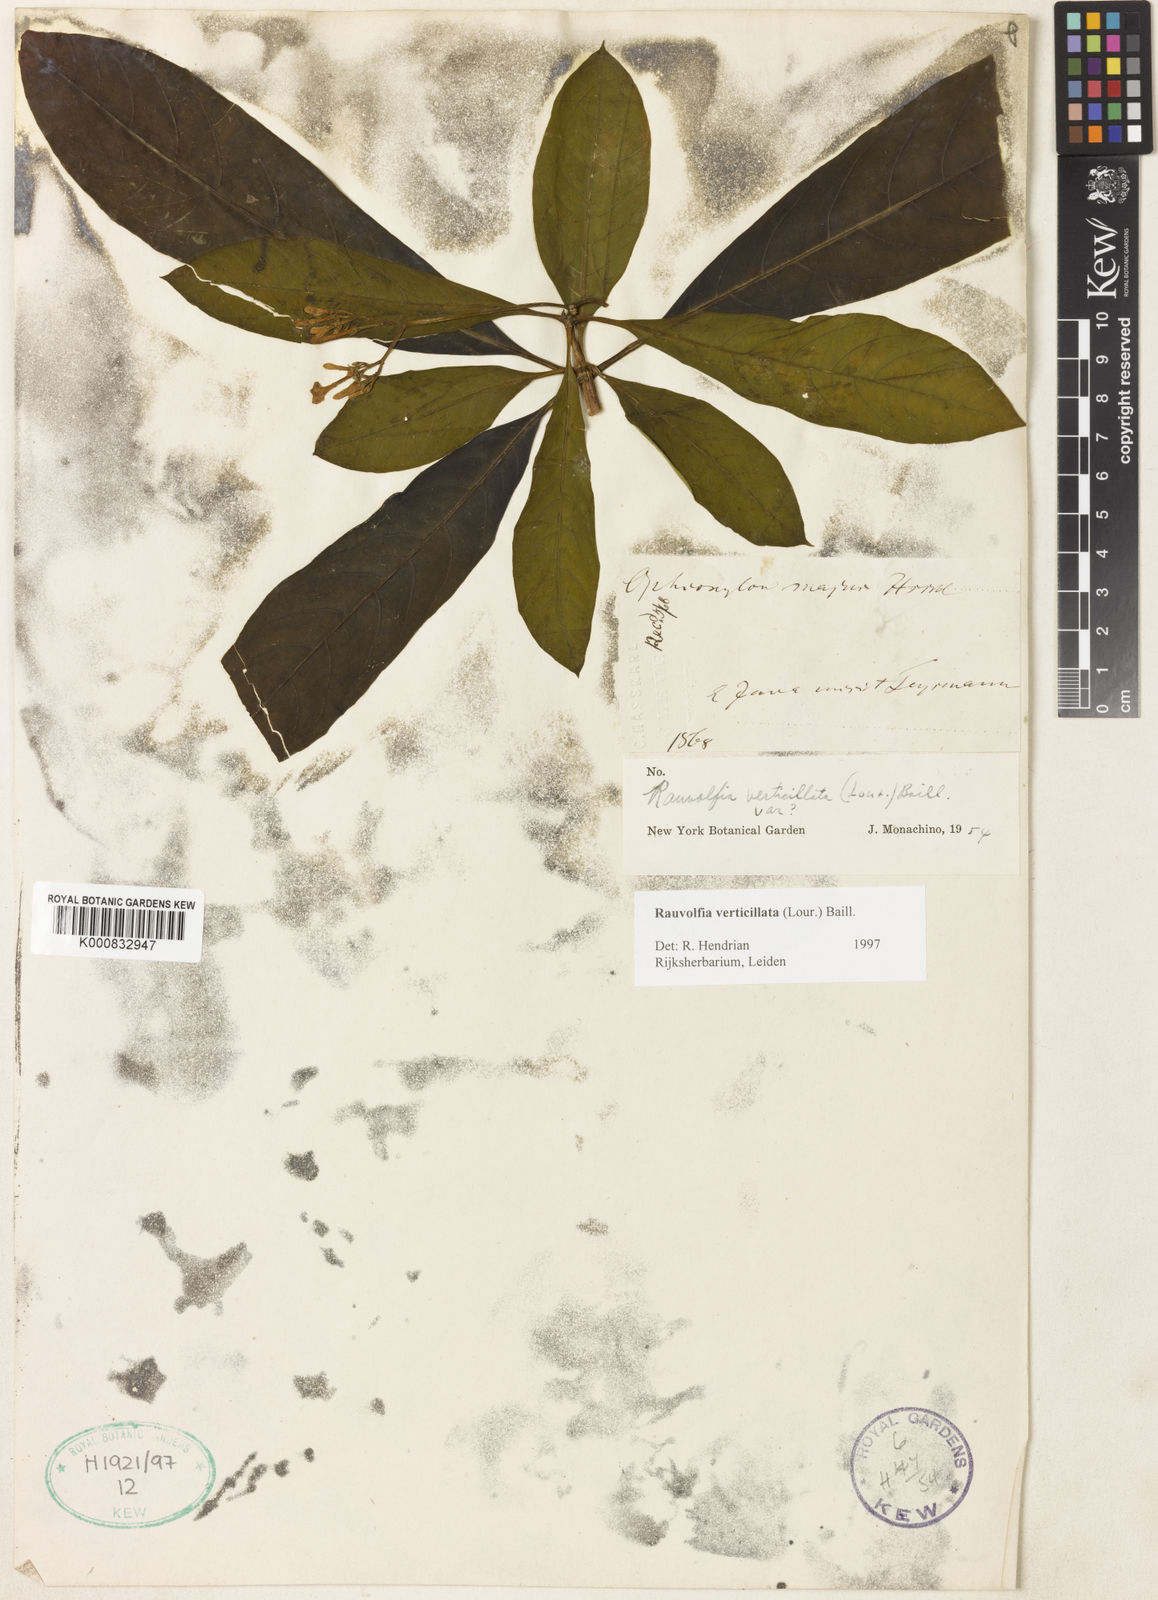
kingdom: Plantae
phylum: Tracheophyta
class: Magnoliopsida
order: Gentianales
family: Apocynaceae
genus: Rauvolfia
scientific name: Rauvolfia verticillata
